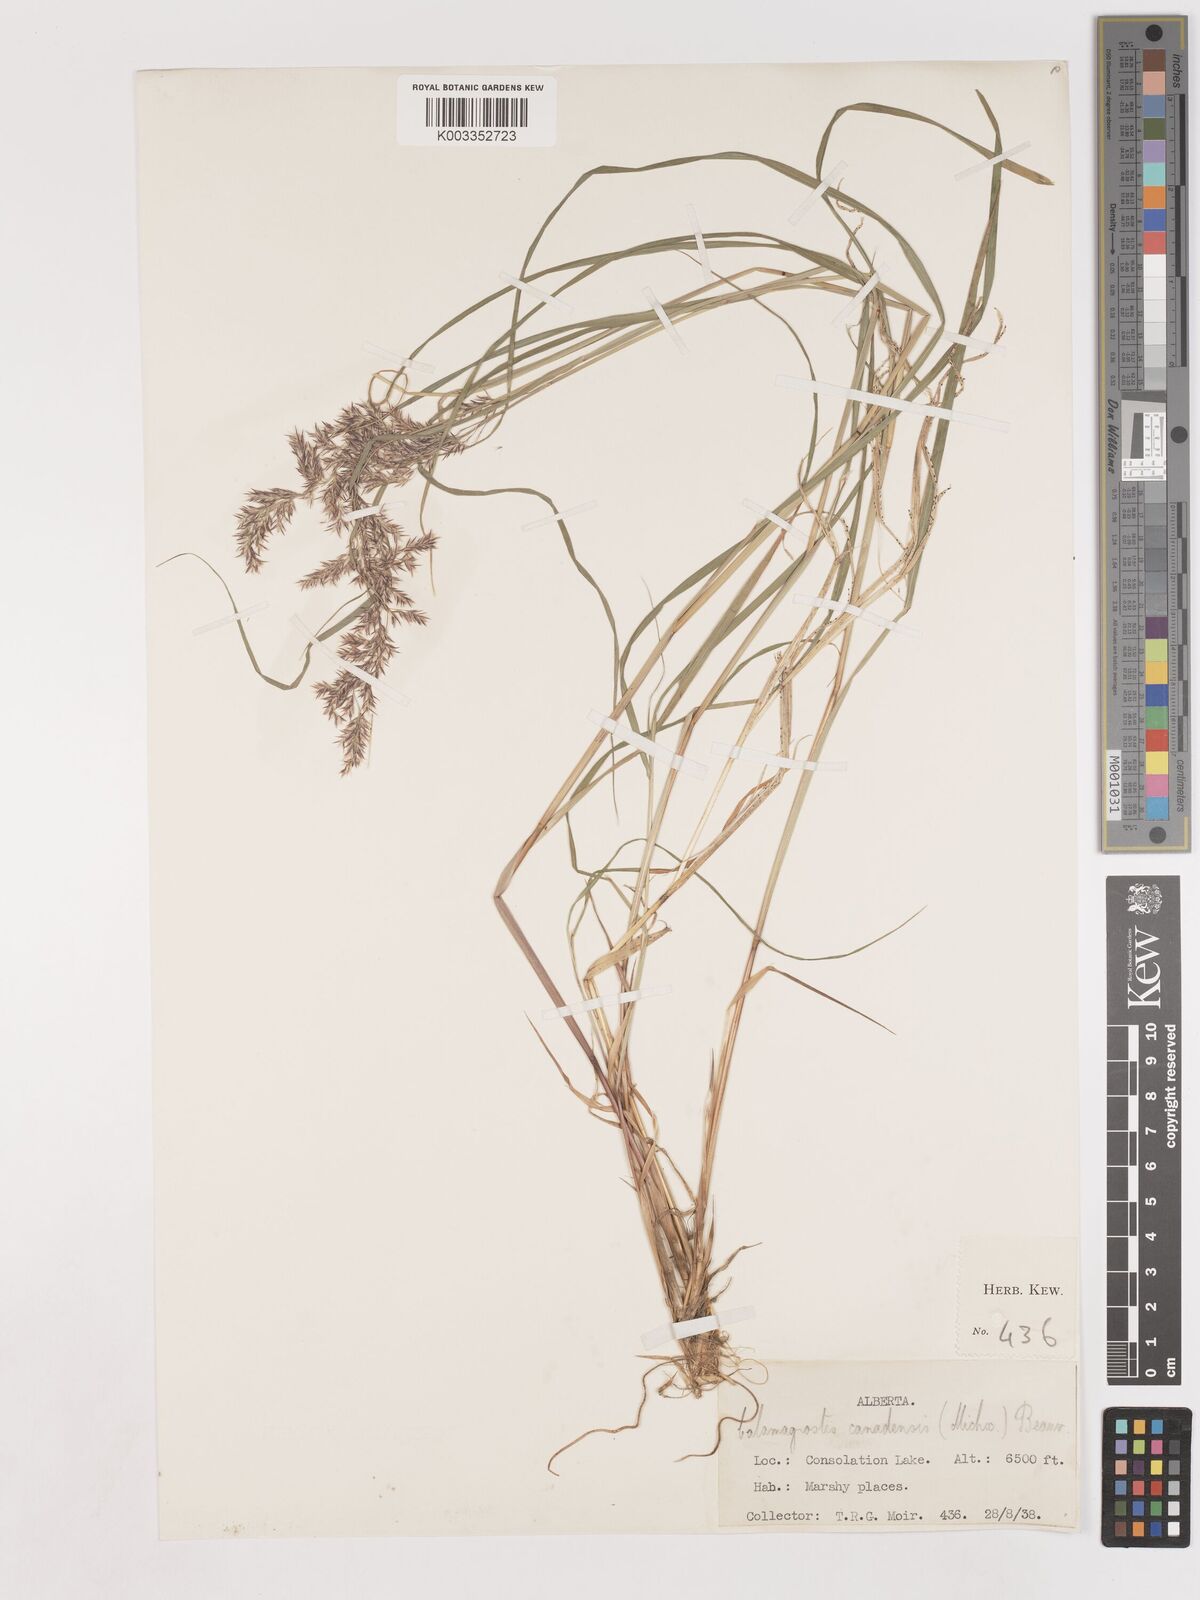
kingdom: Plantae
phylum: Tracheophyta
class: Liliopsida
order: Poales
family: Poaceae
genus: Calamagrostis
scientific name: Calamagrostis canadensis
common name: Canada bluejoint
